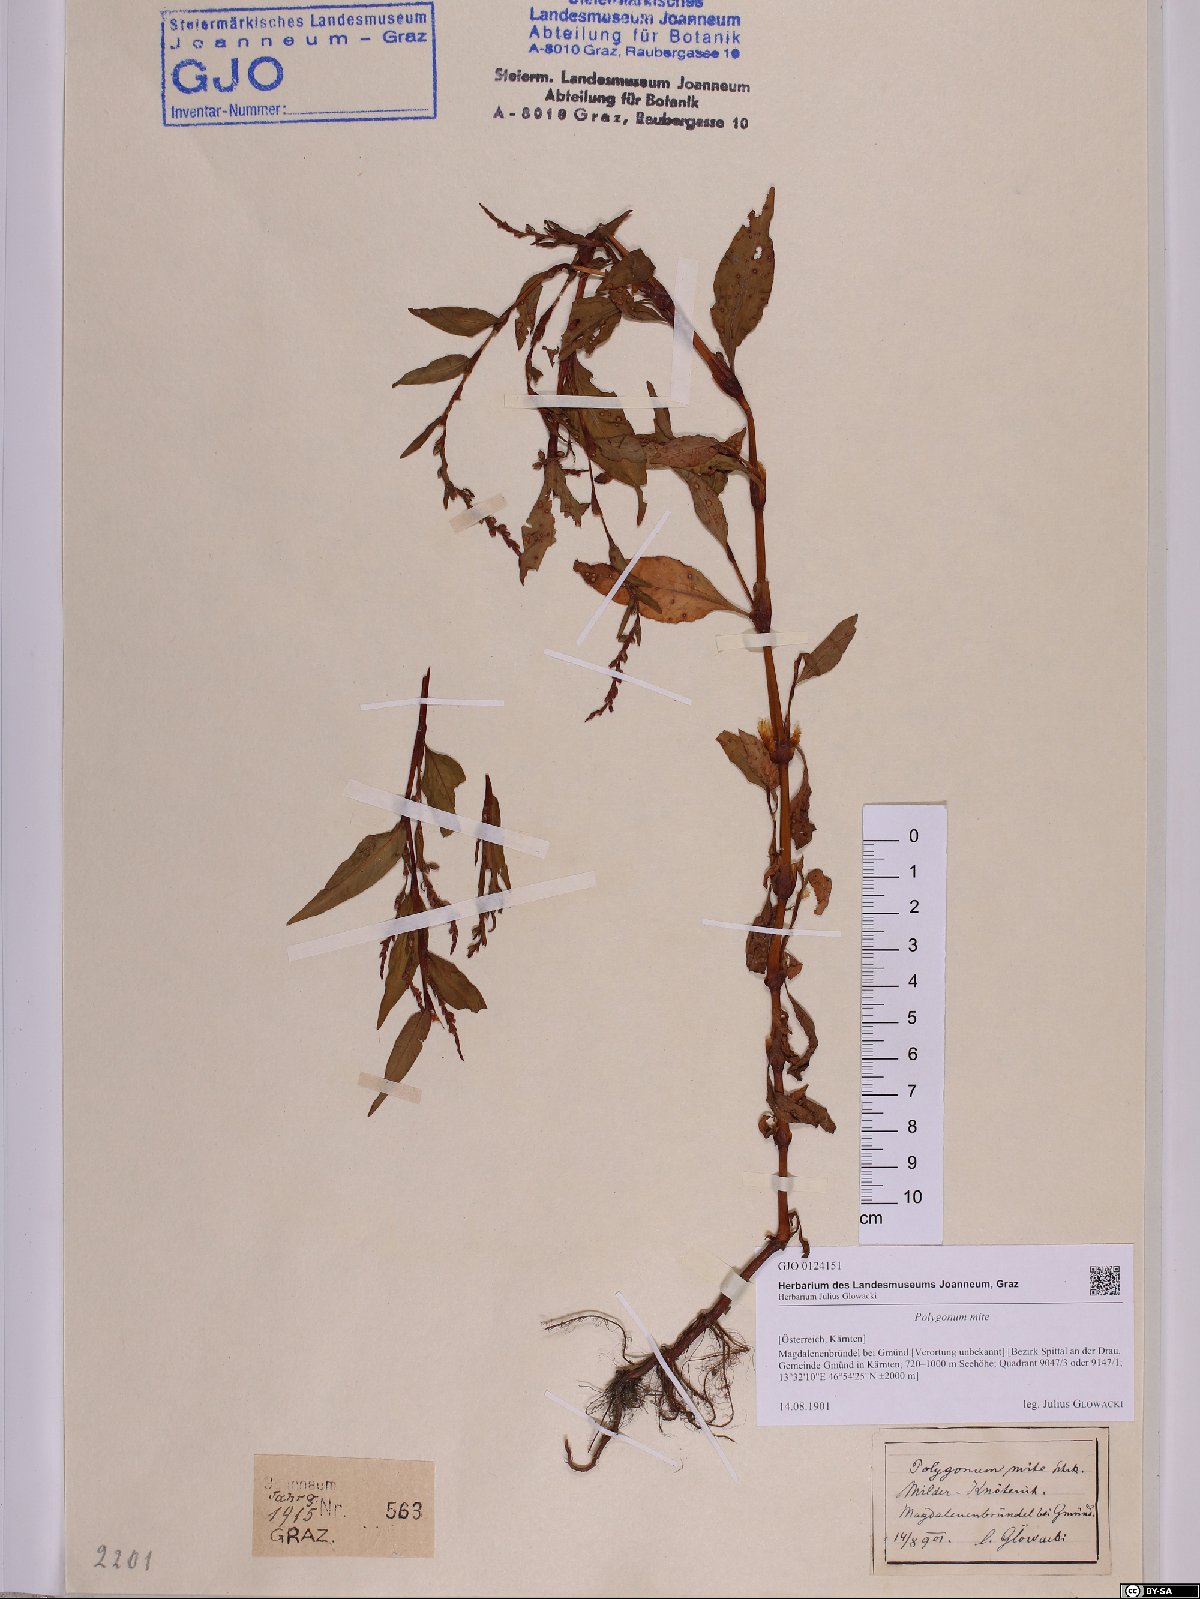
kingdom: Plantae
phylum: Tracheophyta
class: Magnoliopsida
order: Caryophyllales
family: Polygonaceae
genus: Persicaria
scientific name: Persicaria mitis
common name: Tasteless water-pepper
